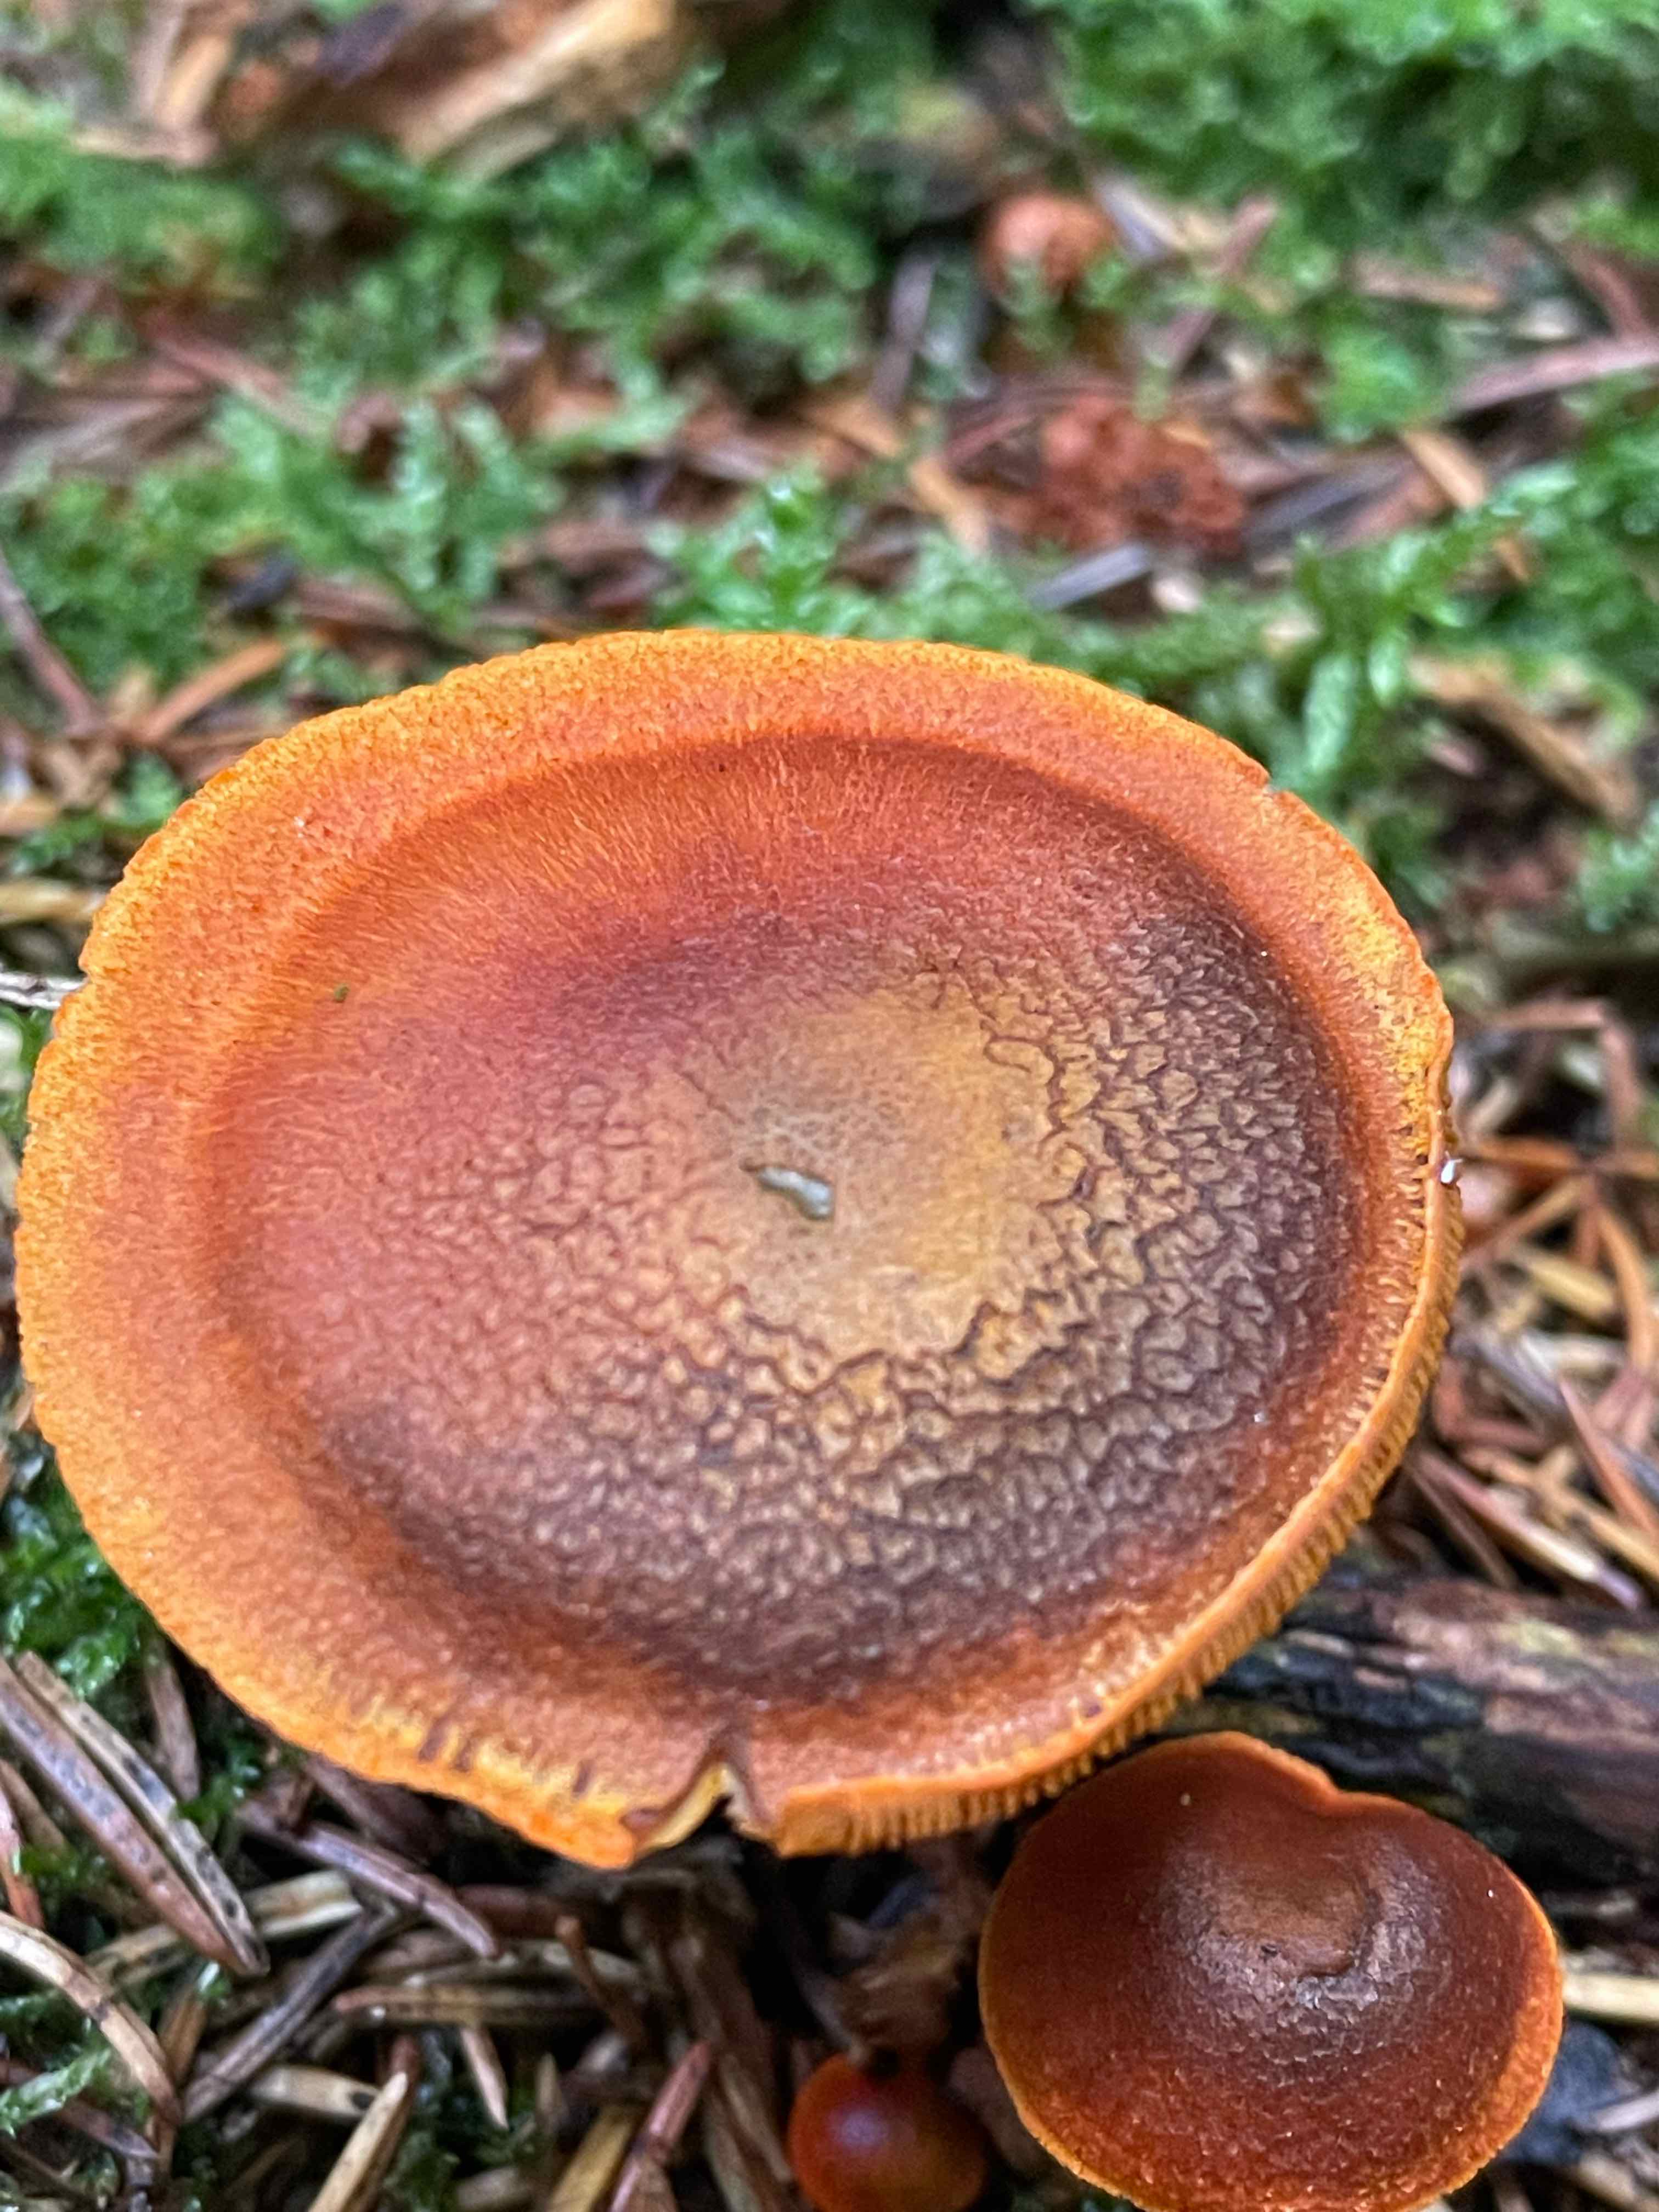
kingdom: Fungi
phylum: Basidiomycota
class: Agaricomycetes
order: Agaricales
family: Cortinariaceae
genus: Cortinarius
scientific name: Cortinarius malicorius
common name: grønkødet slørhat
